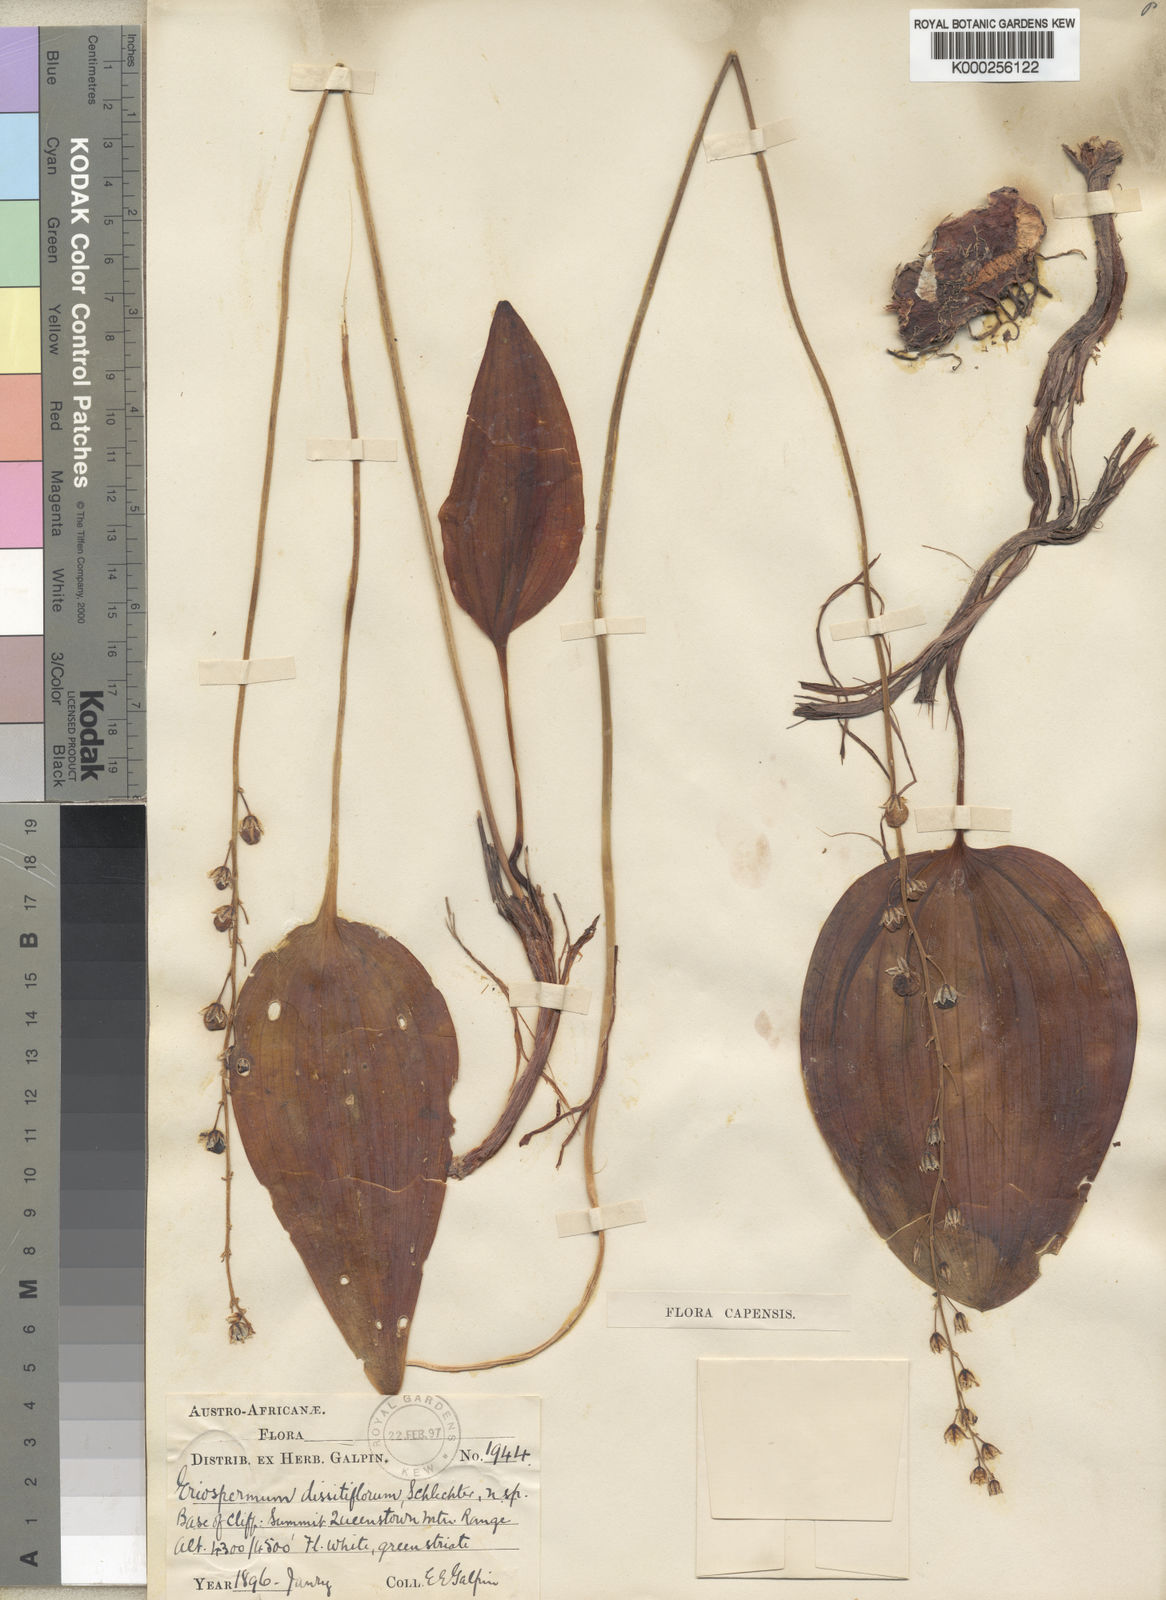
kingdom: Plantae
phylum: Tracheophyta
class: Liliopsida
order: Asparagales
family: Asparagaceae
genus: Eriospermum
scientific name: Eriospermum dissitiflorum
